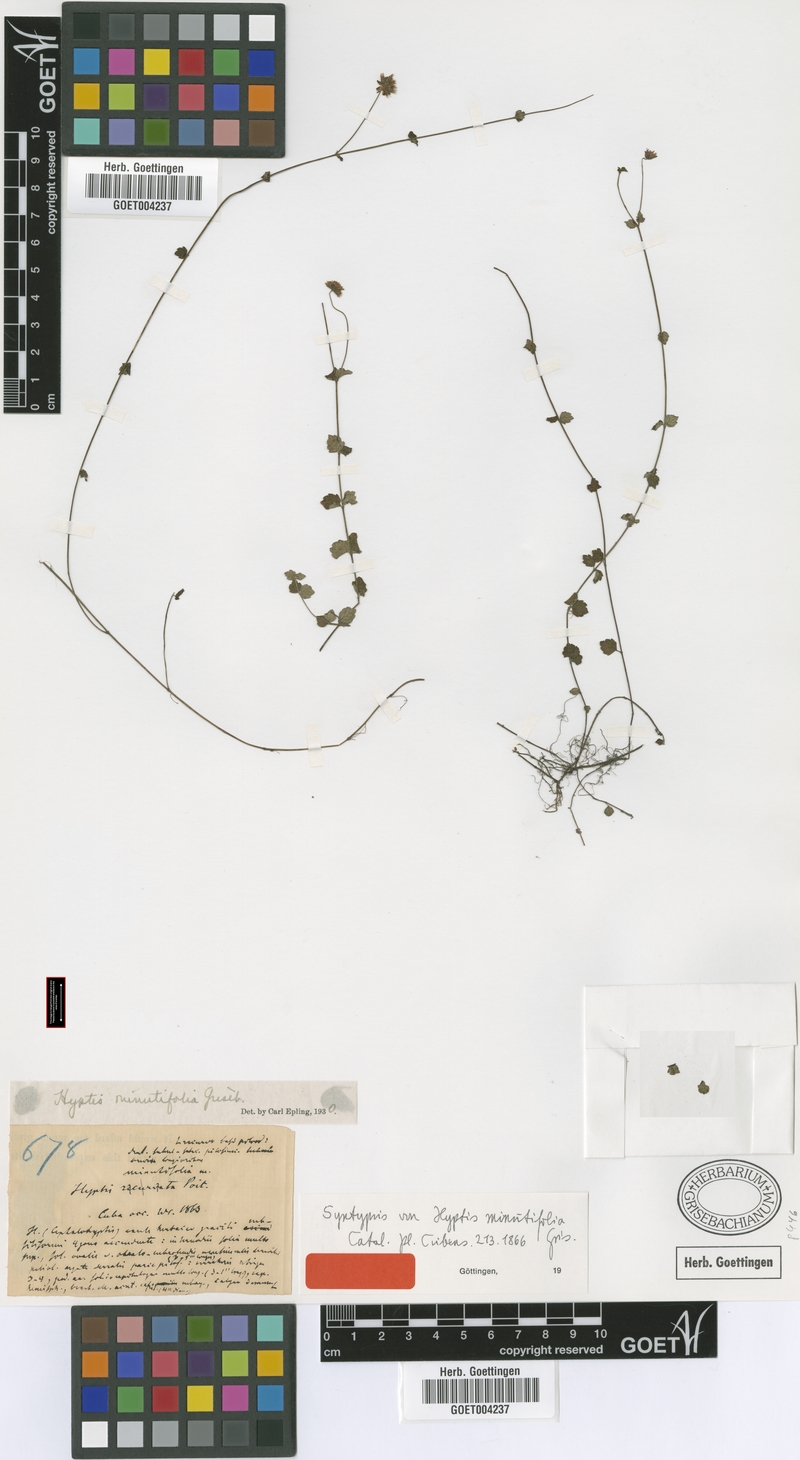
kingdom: Plantae
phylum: Tracheophyta
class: Magnoliopsida
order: Lamiales
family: Lamiaceae
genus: Hyptis
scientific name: Hyptis minutifolia
